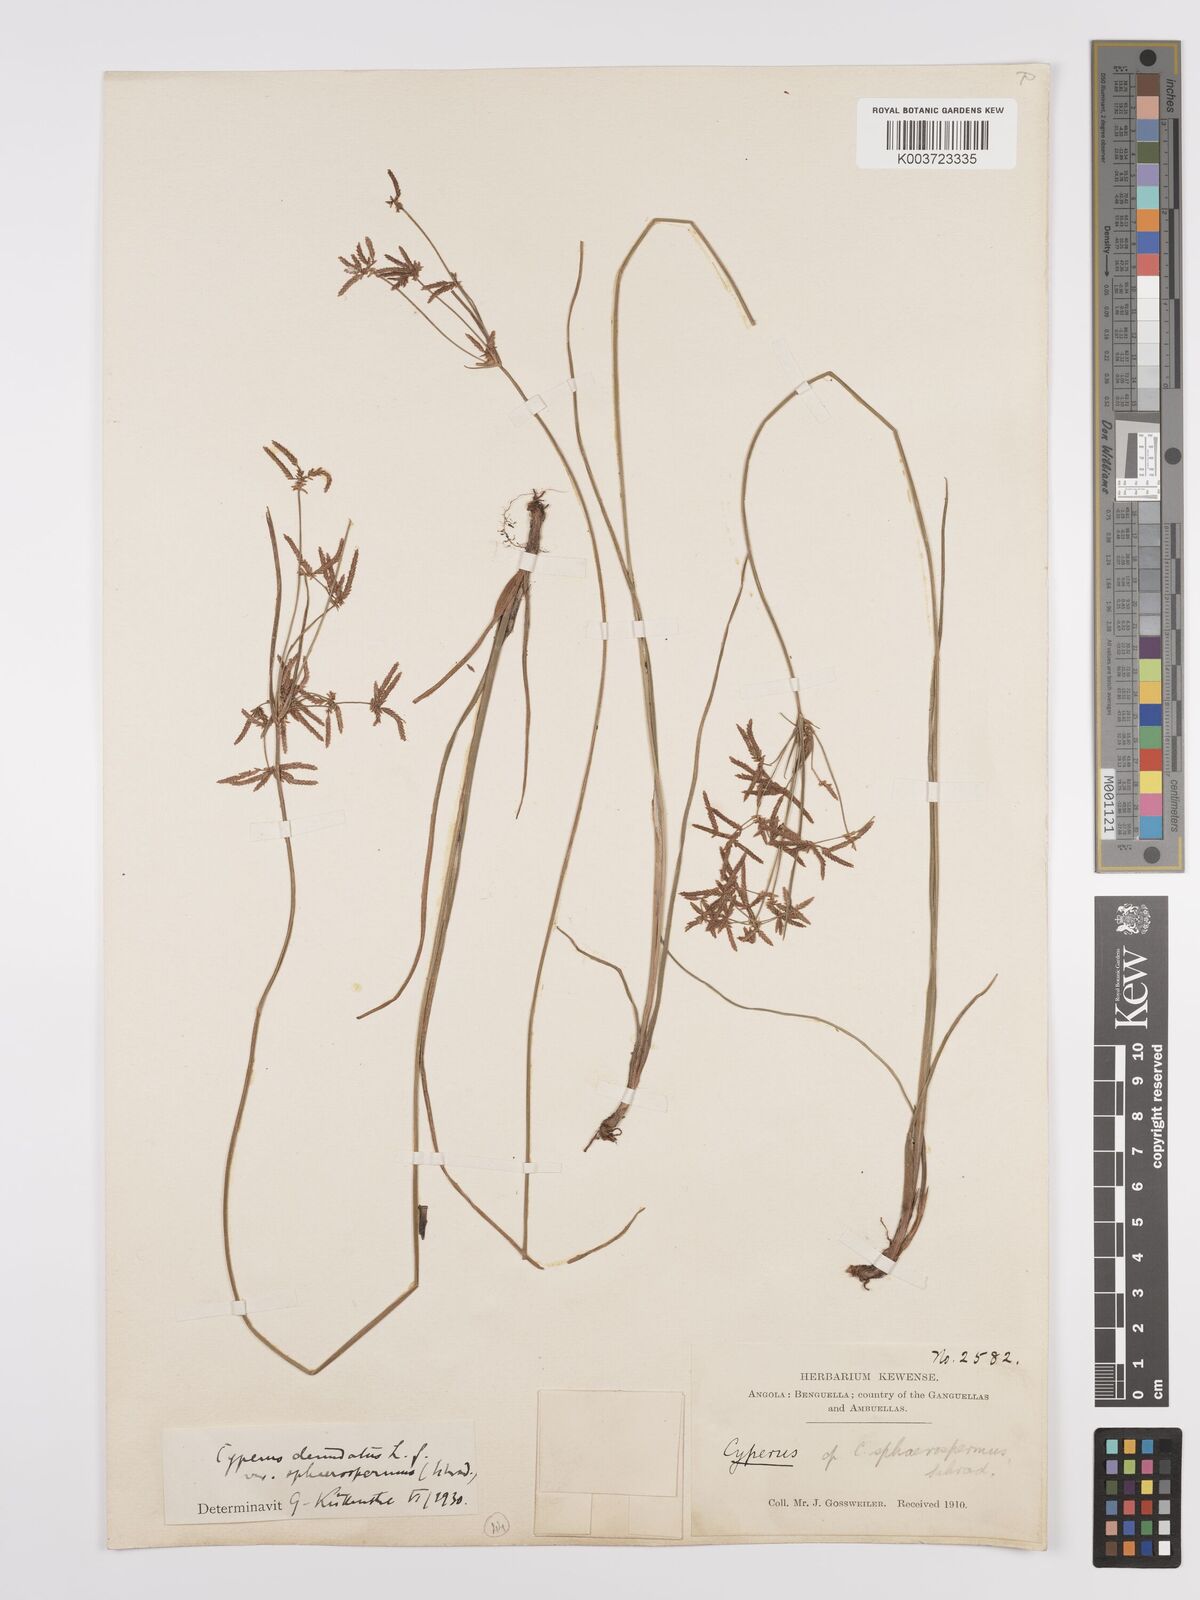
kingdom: Plantae
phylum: Tracheophyta
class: Liliopsida
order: Poales
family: Cyperaceae
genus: Cyperus
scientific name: Cyperus denudatus
